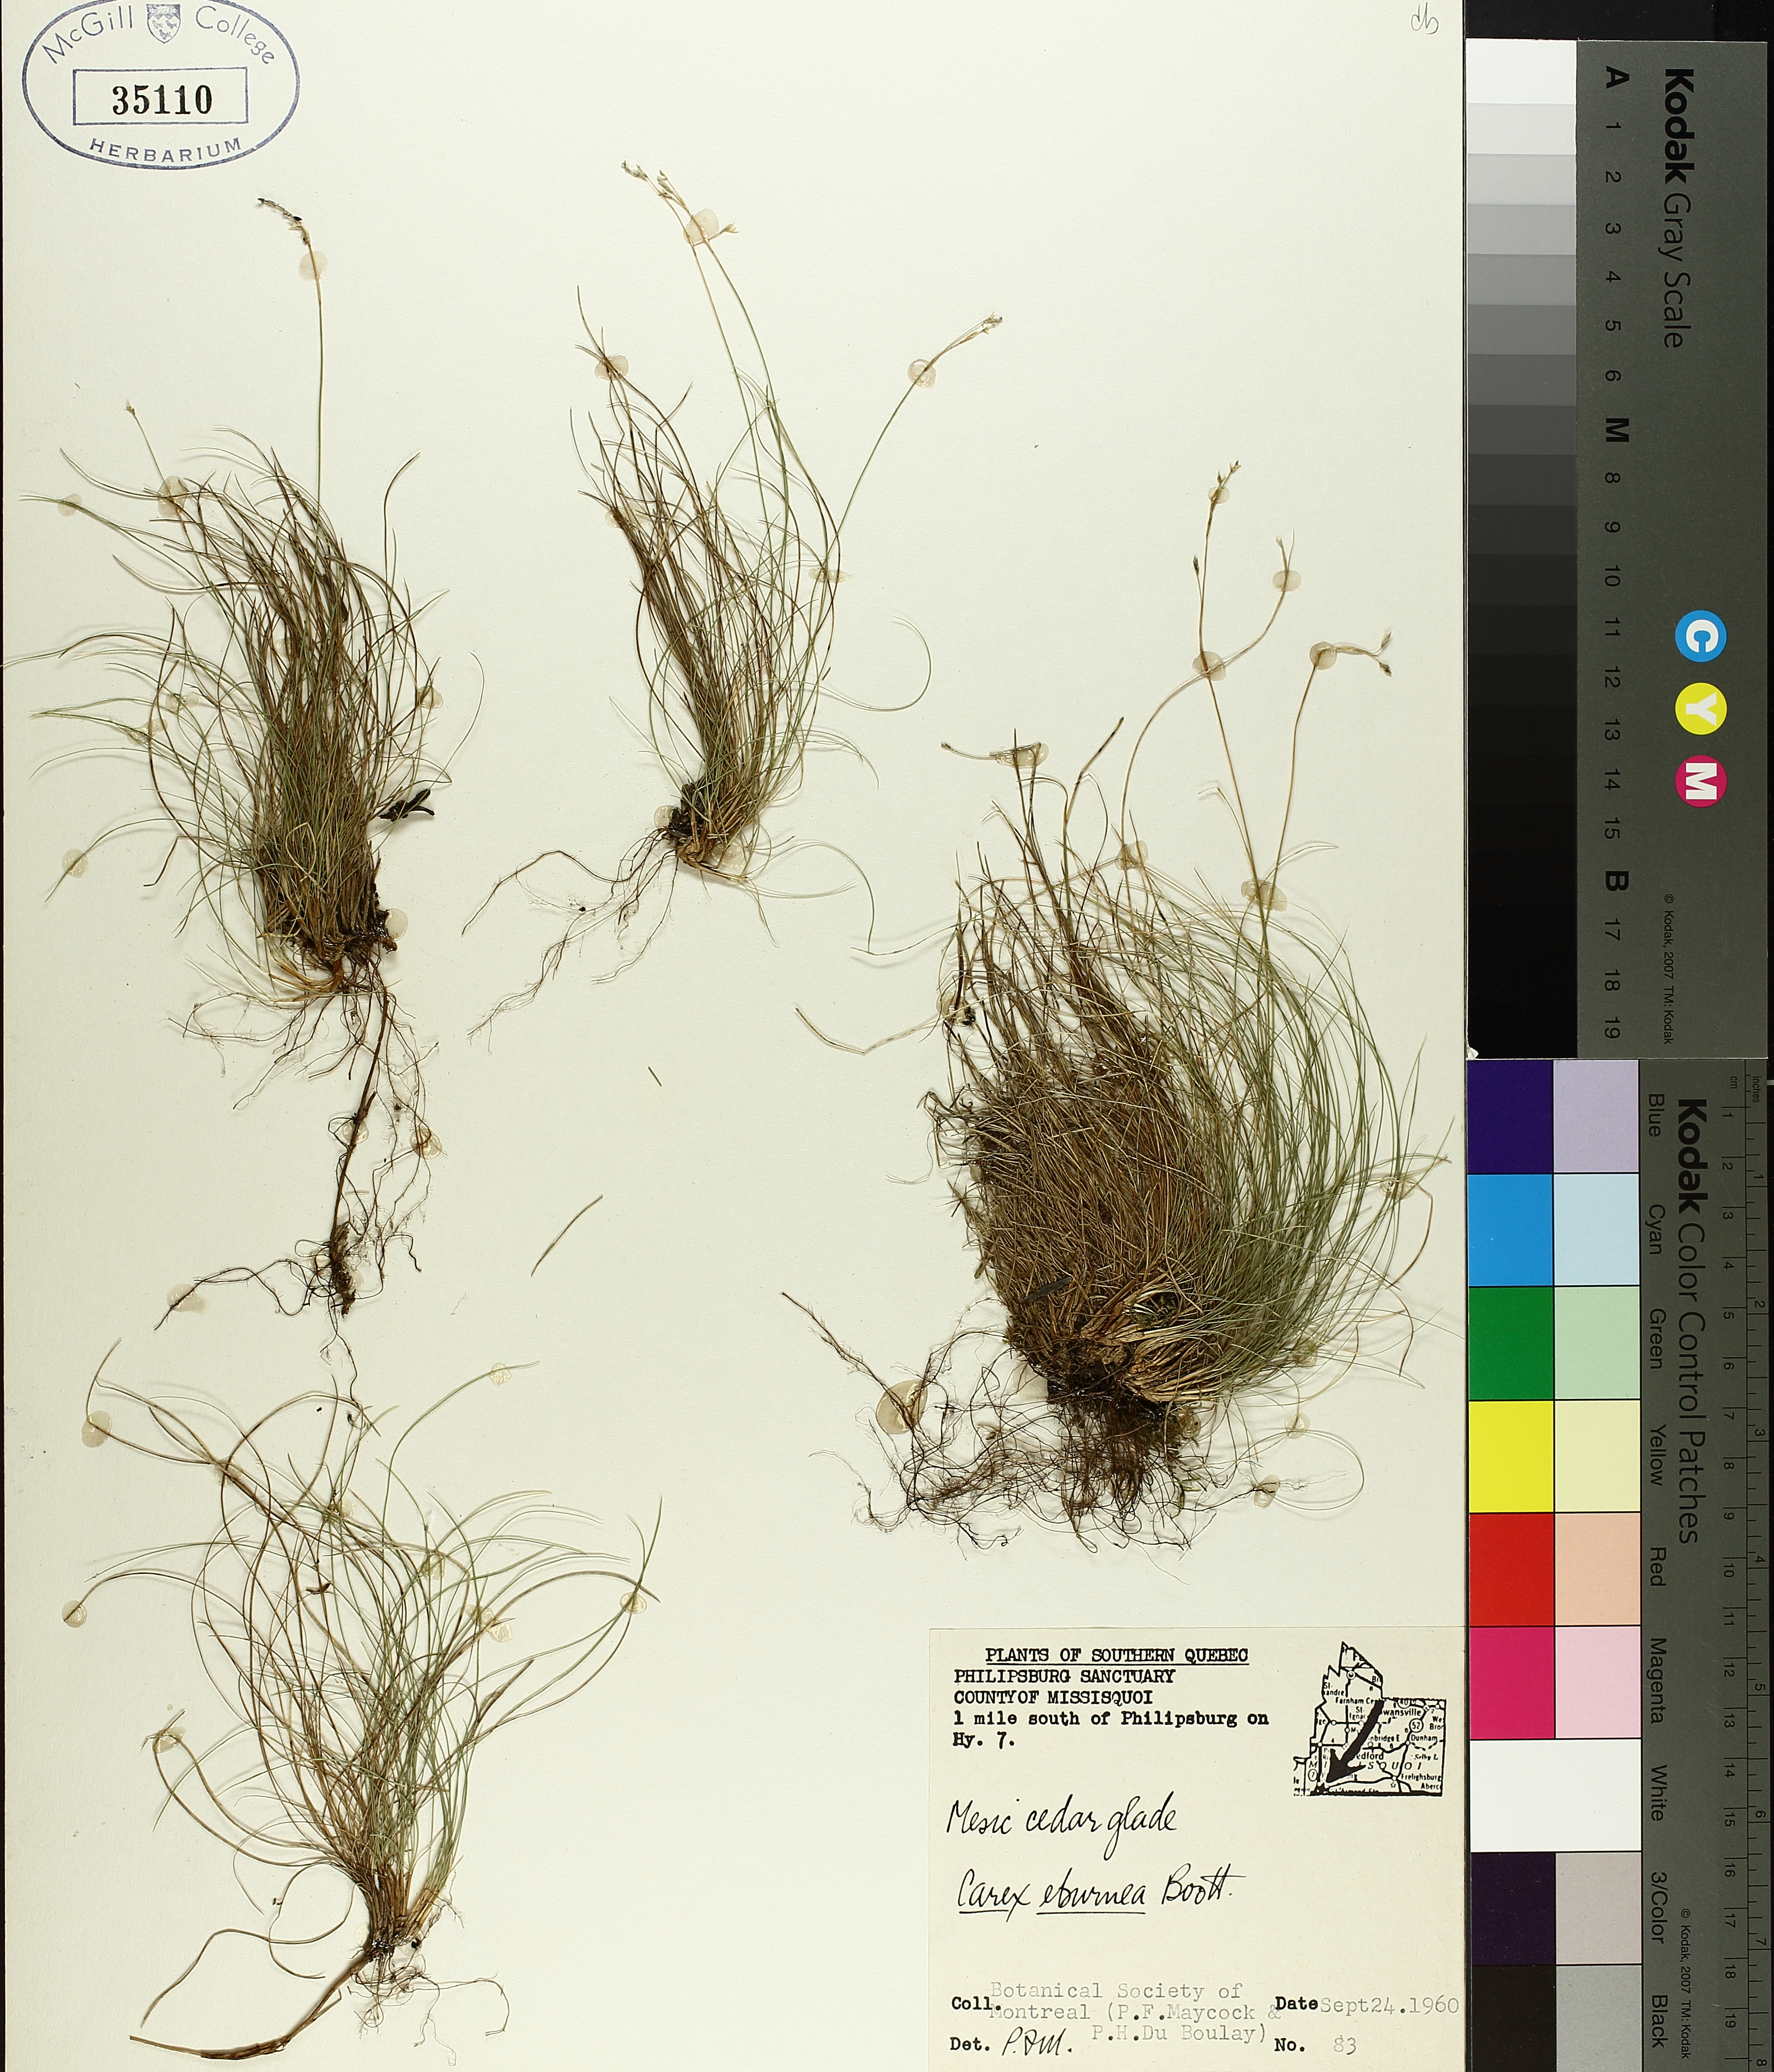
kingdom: Plantae
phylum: Tracheophyta
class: Liliopsida
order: Poales
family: Cyperaceae
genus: Carex
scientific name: Carex eburnea
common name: Bristle-leaved sedge
